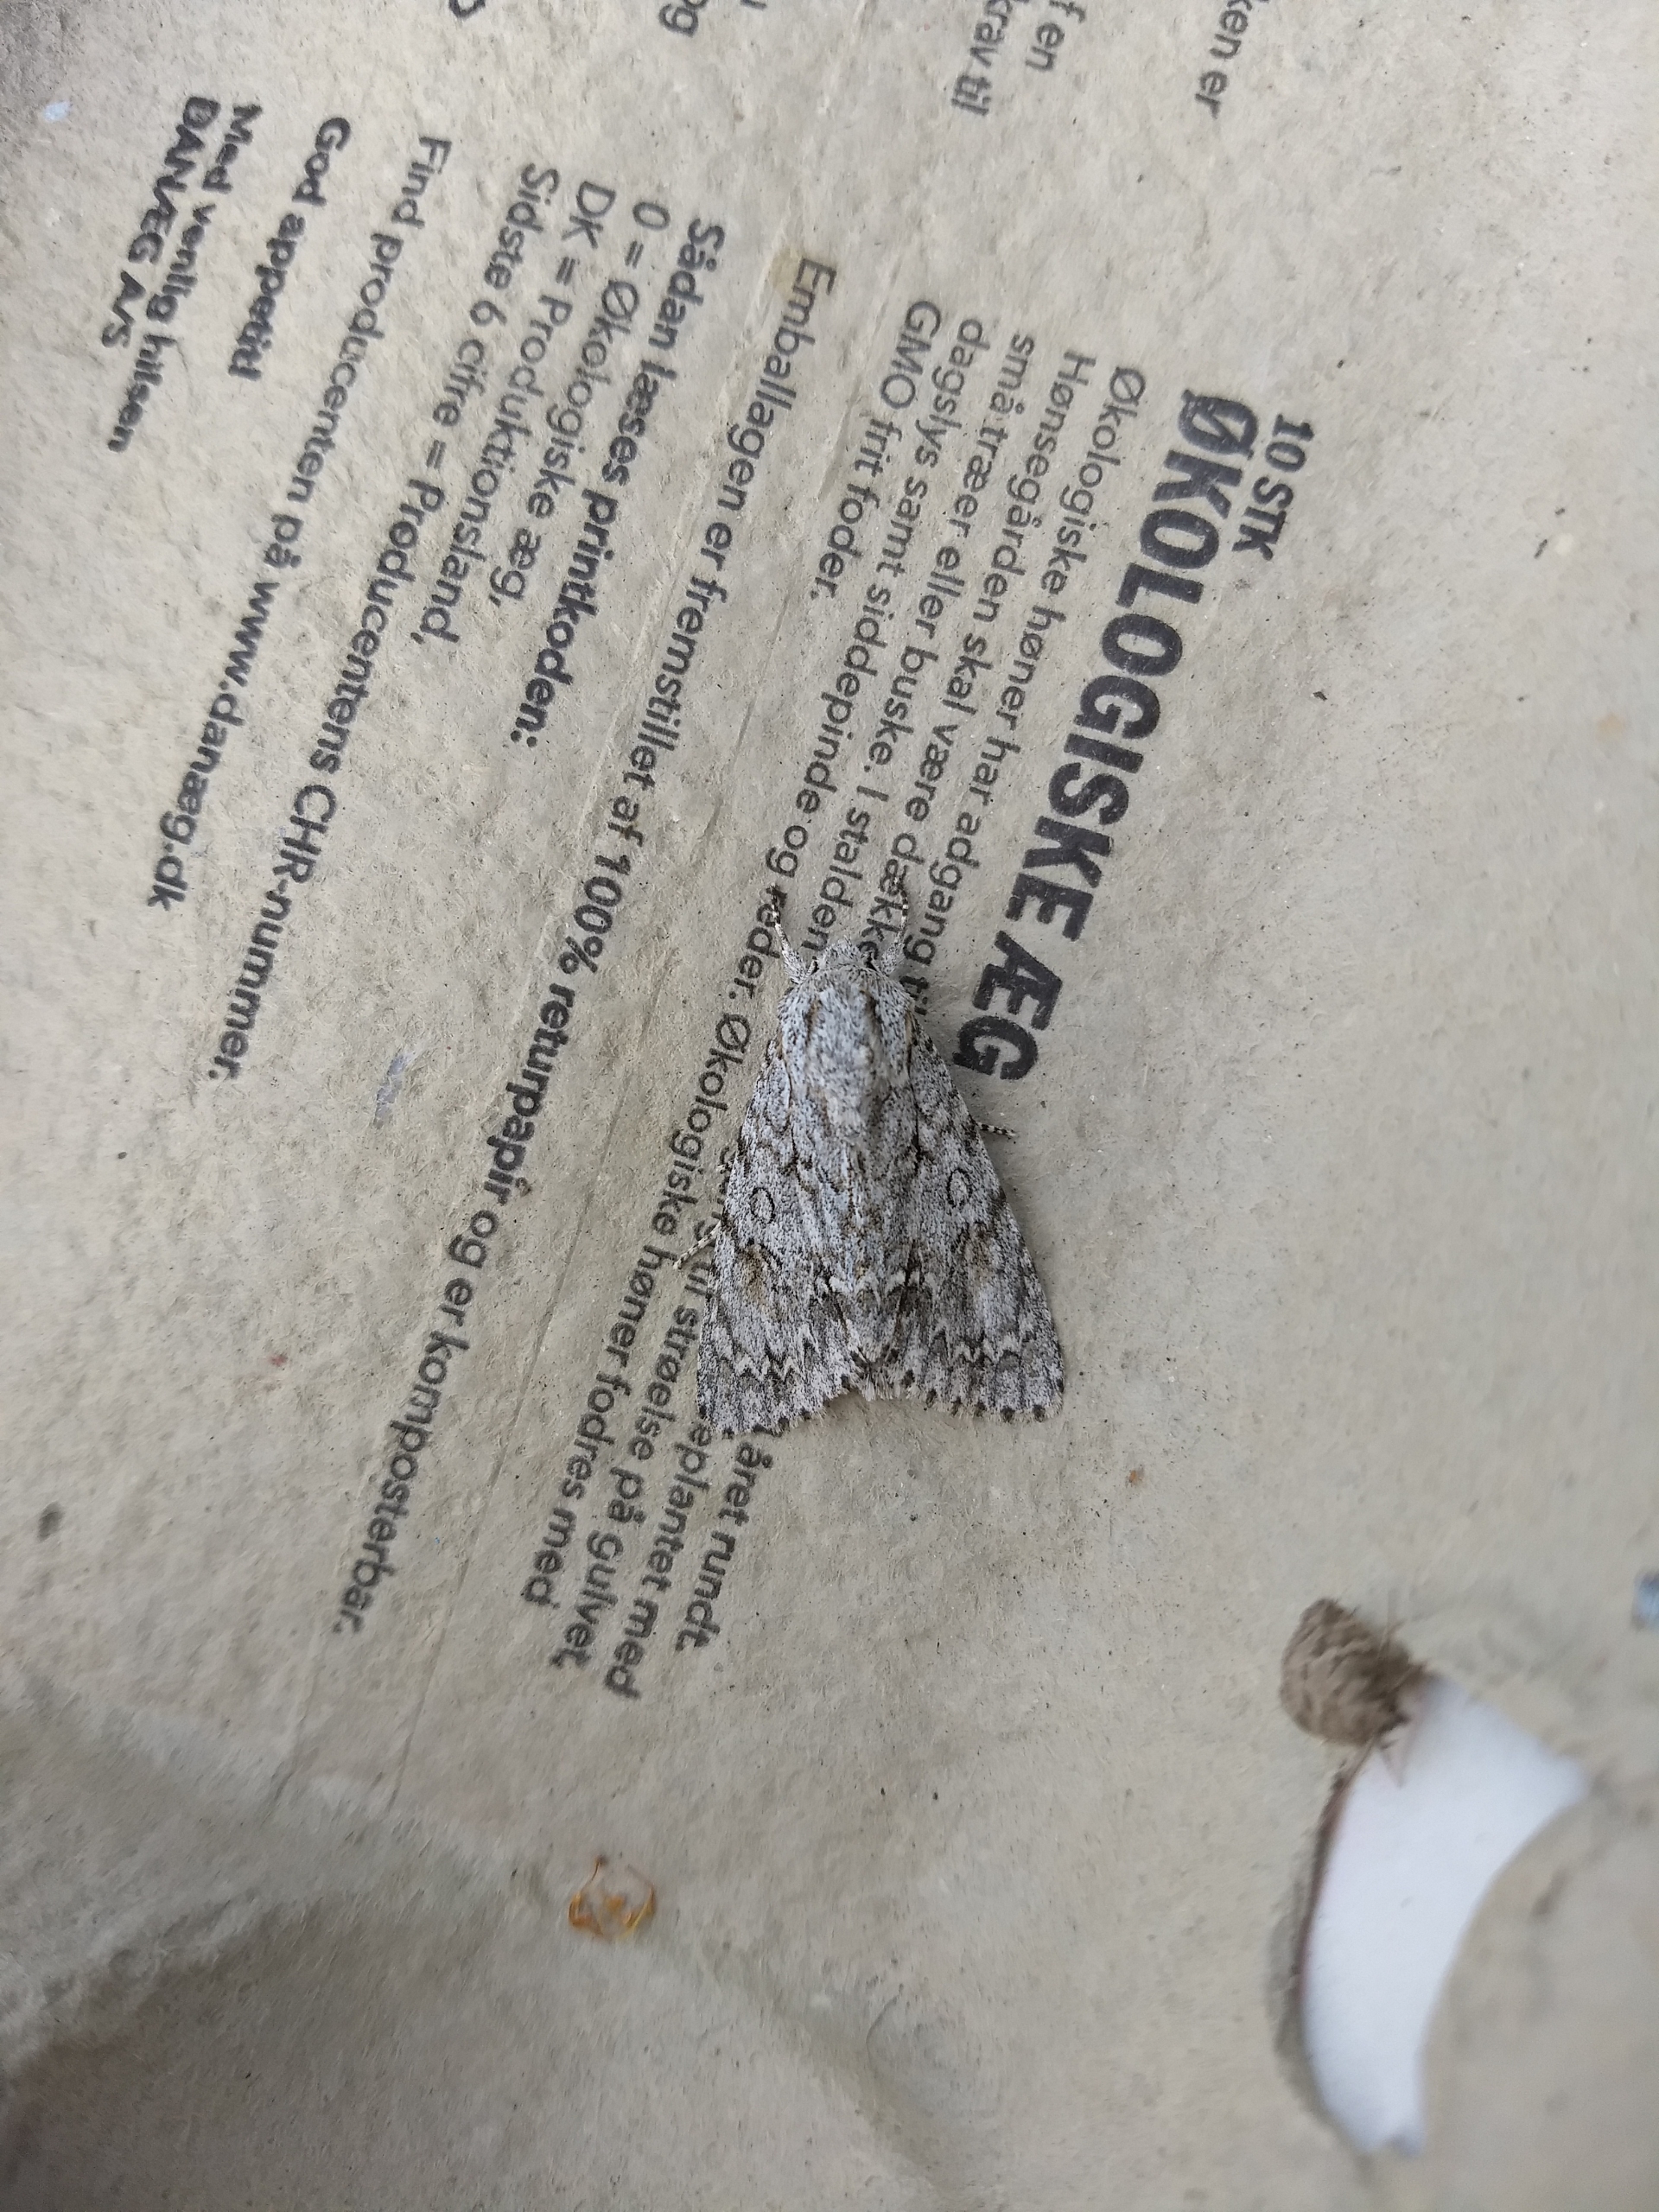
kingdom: Animalia
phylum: Arthropoda
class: Insecta
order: Lepidoptera
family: Noctuidae
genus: Acronicta
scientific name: Acronicta aceris
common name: Ahornugle
